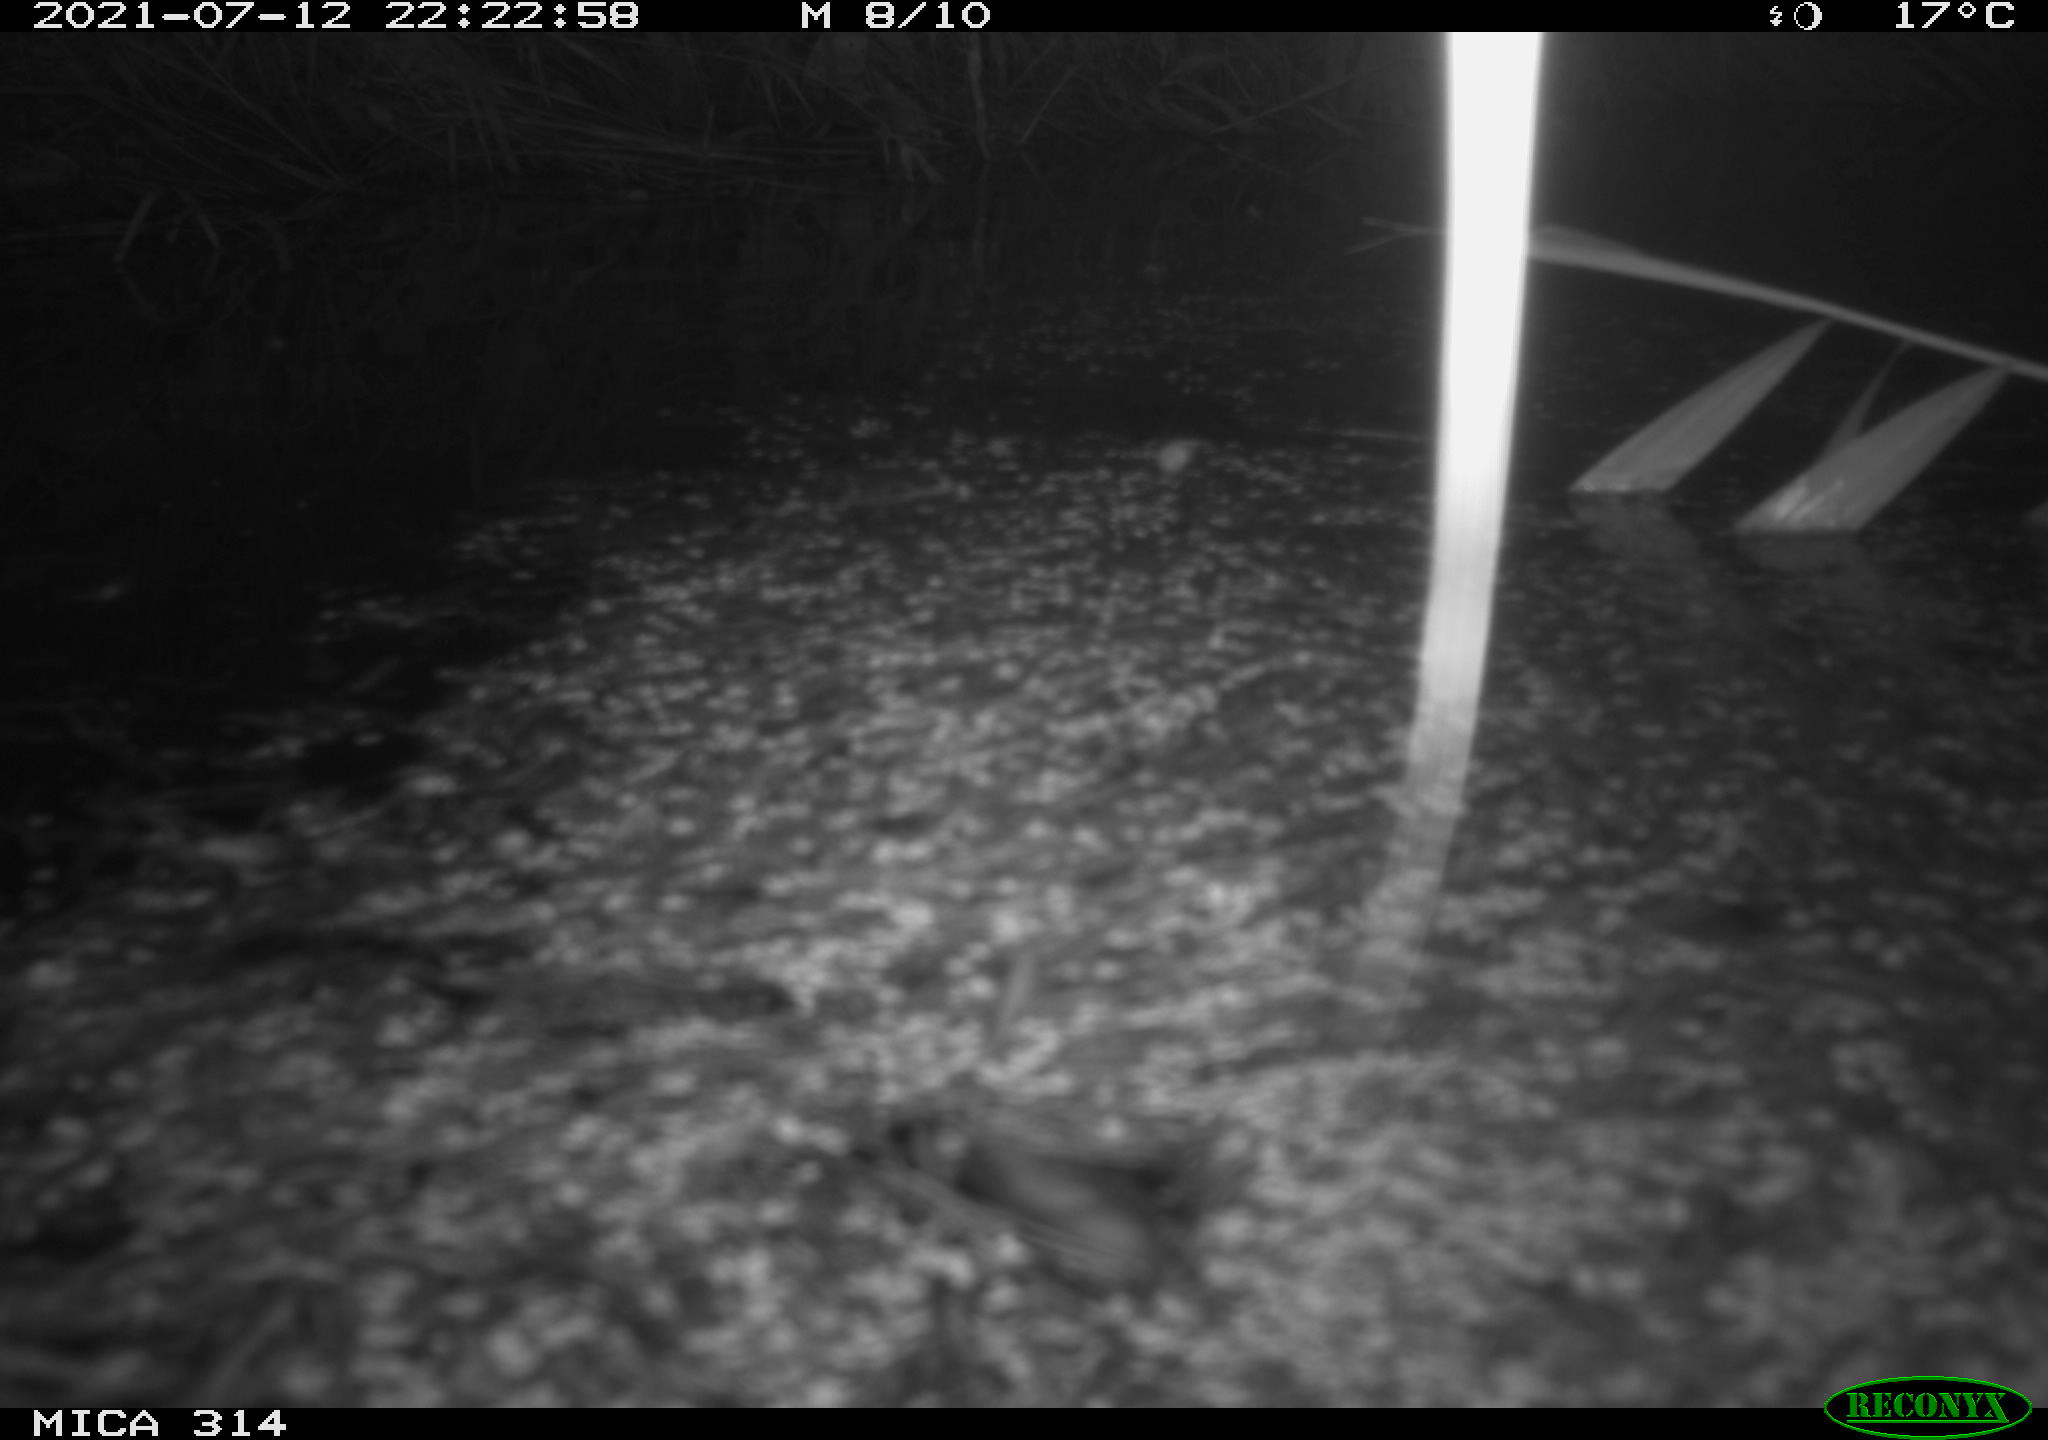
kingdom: Animalia
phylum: Chordata
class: Mammalia
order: Rodentia
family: Muridae
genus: Rattus
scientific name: Rattus norvegicus
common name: Brown rat
